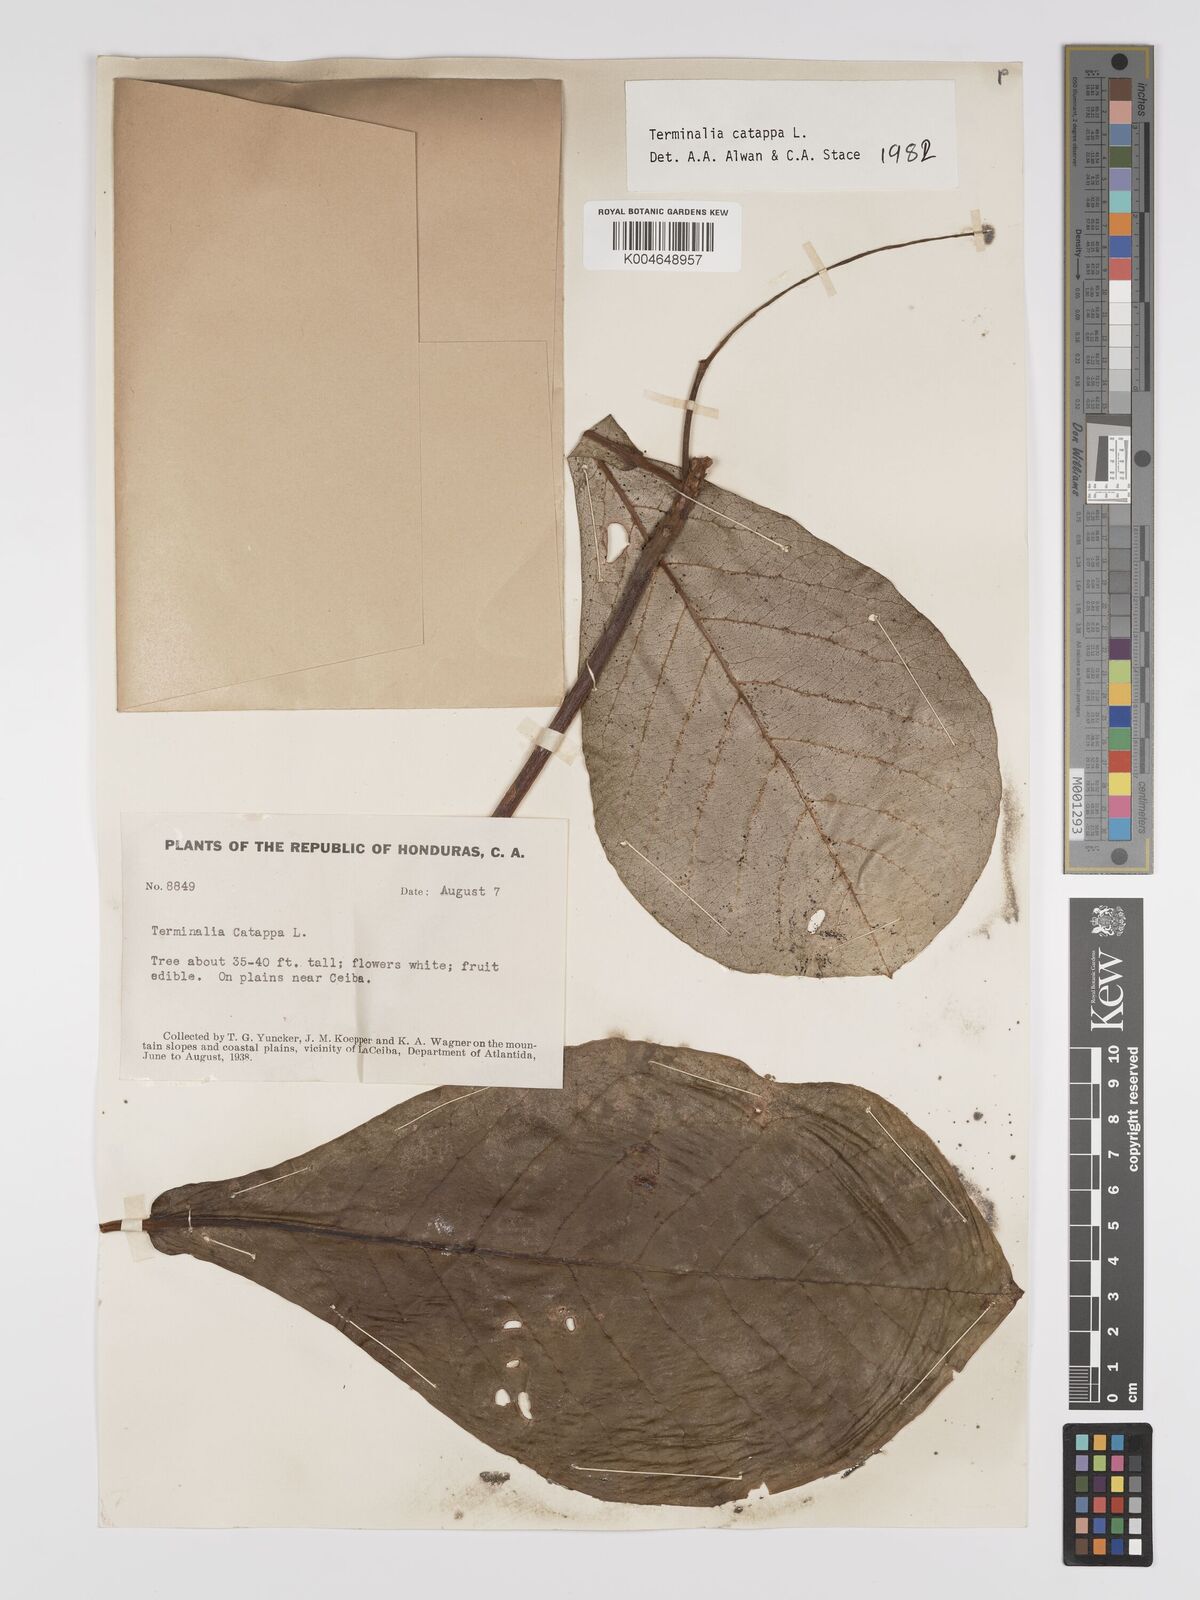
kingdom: Plantae
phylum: Tracheophyta
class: Magnoliopsida
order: Myrtales
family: Combretaceae
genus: Terminalia
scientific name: Terminalia catappa
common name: Tropical almond
